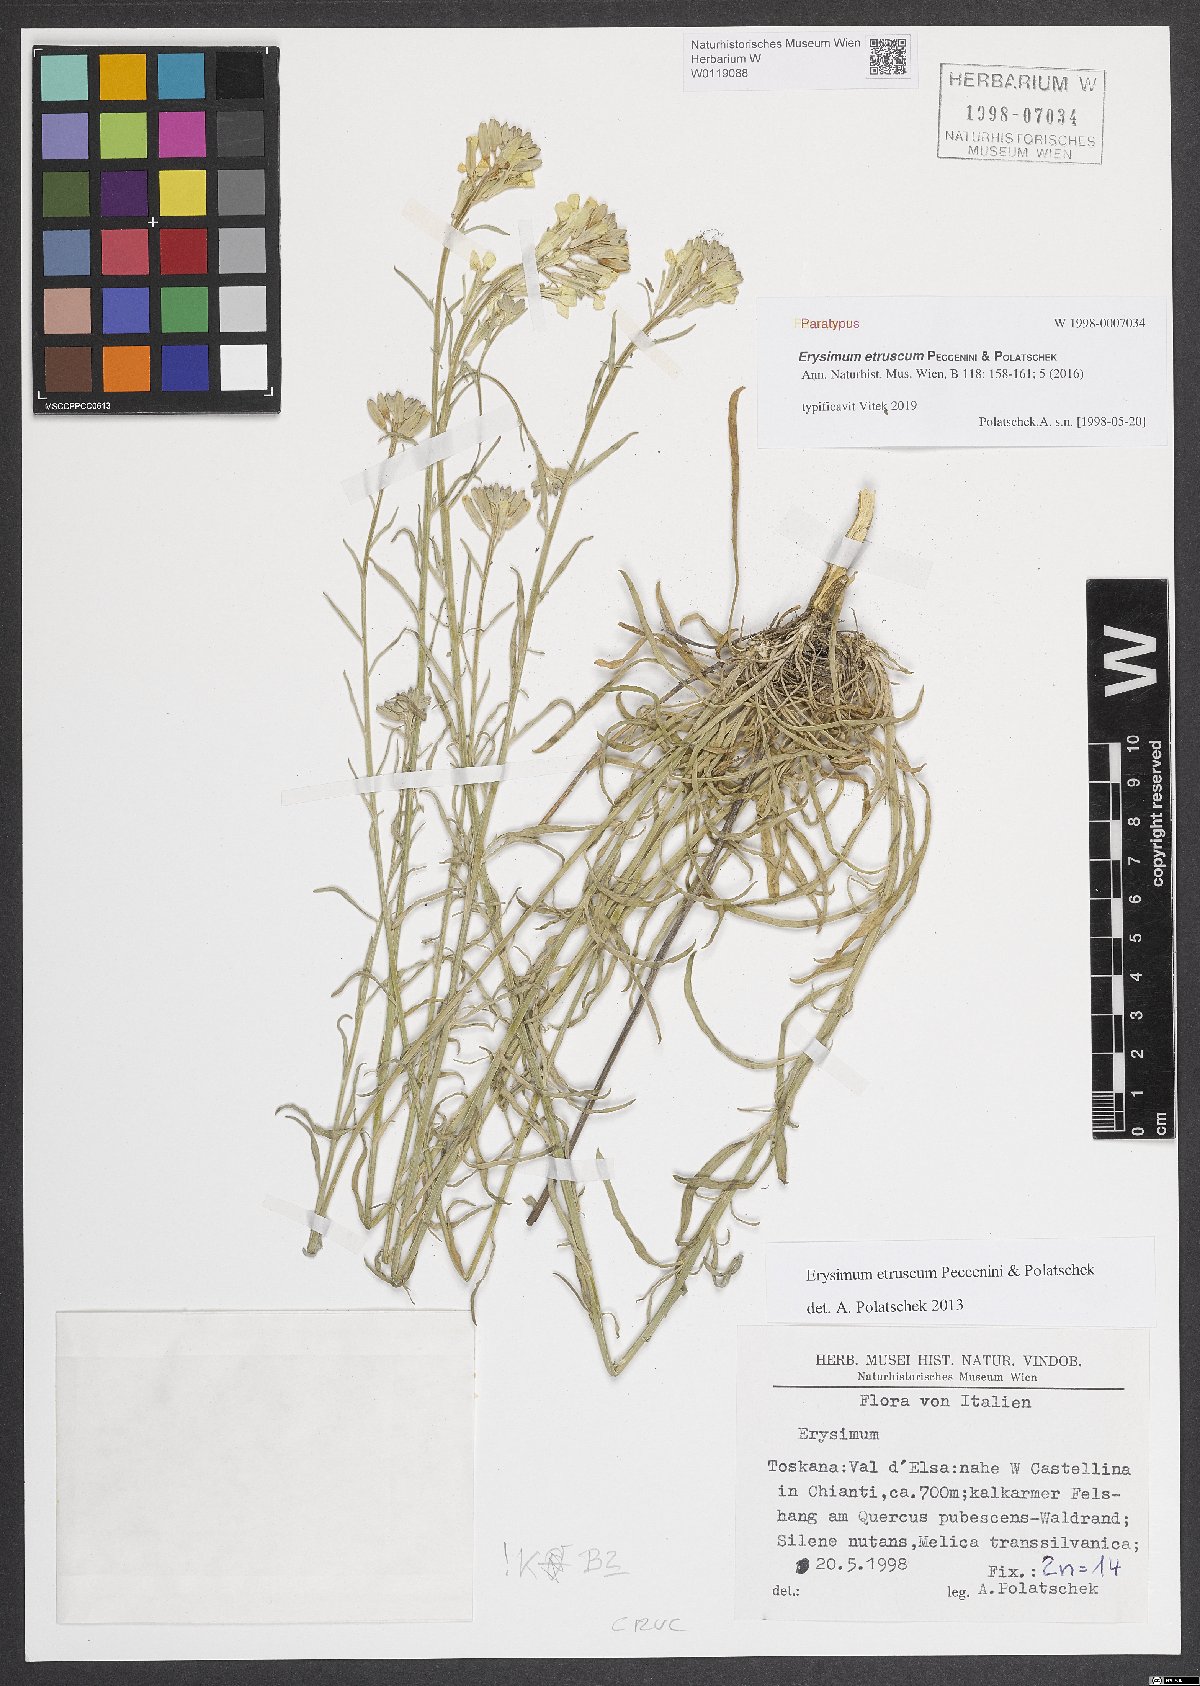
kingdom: Plantae
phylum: Tracheophyta
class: Magnoliopsida
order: Brassicales
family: Brassicaceae
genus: Erysimum
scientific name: Erysimum pseudorhaeticum
